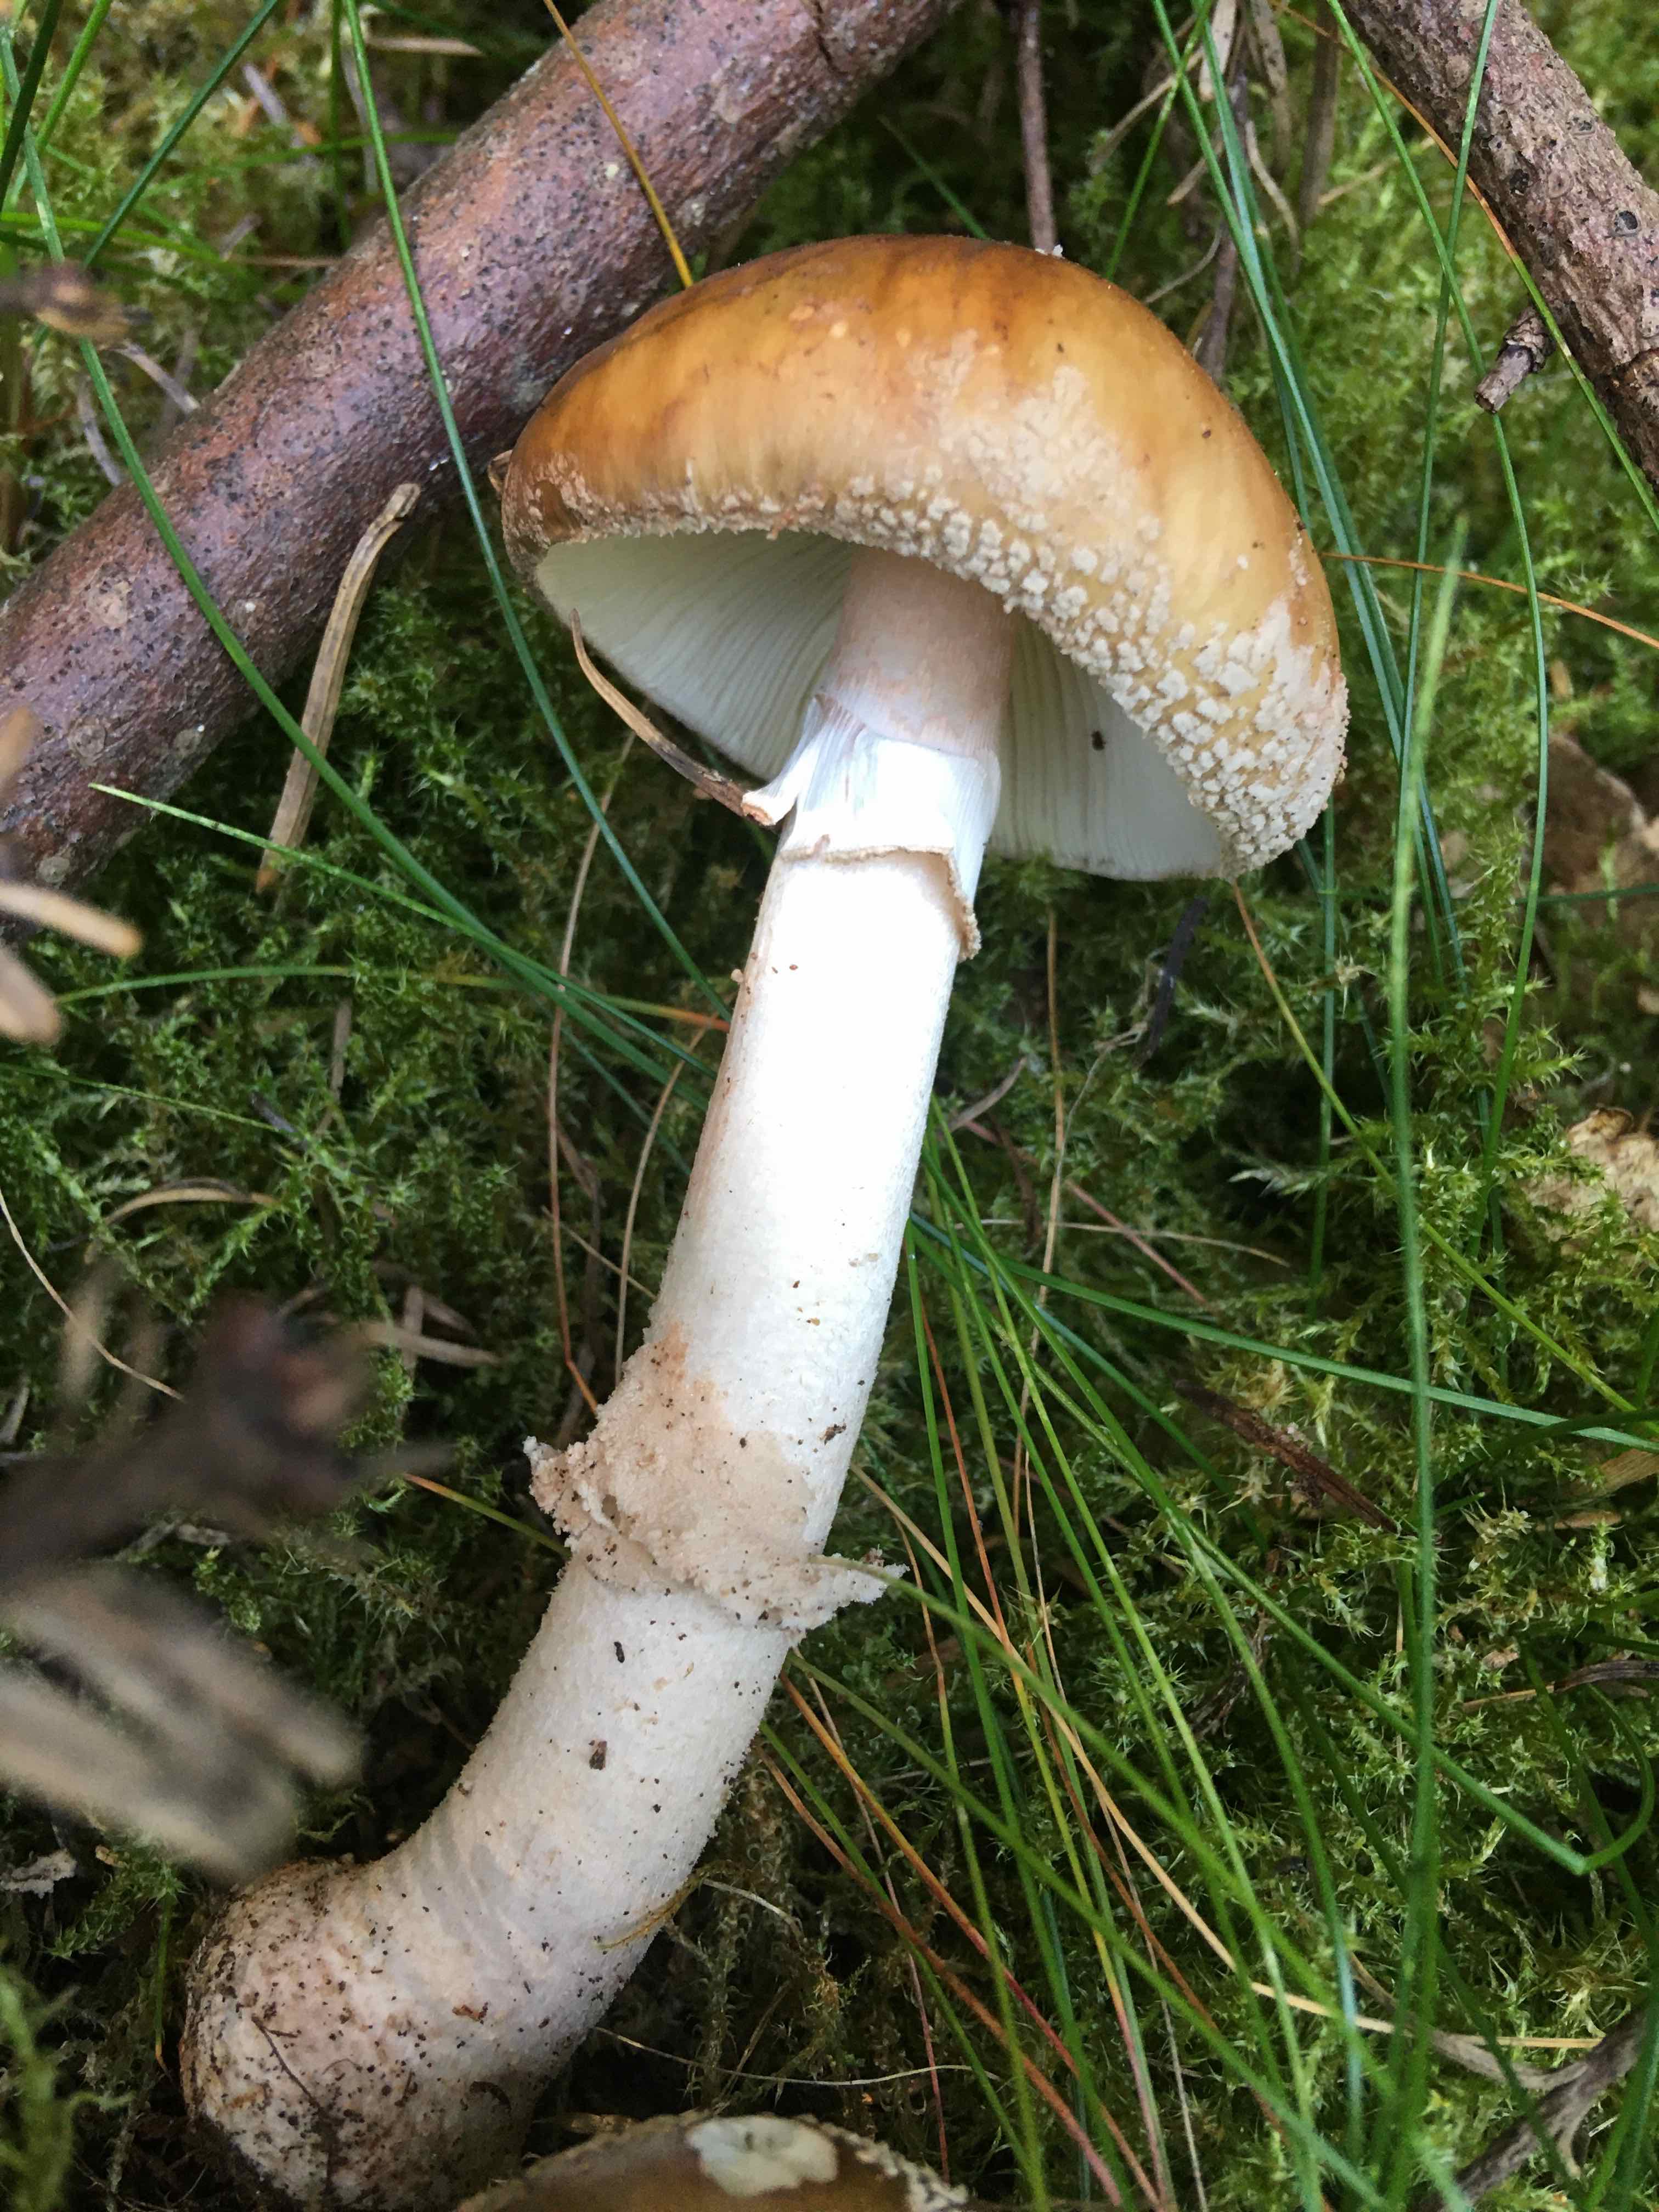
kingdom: Fungi
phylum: Basidiomycota
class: Agaricomycetes
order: Agaricales
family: Amanitaceae
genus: Amanita
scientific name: Amanita rubescens
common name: rødmende fluesvamp
